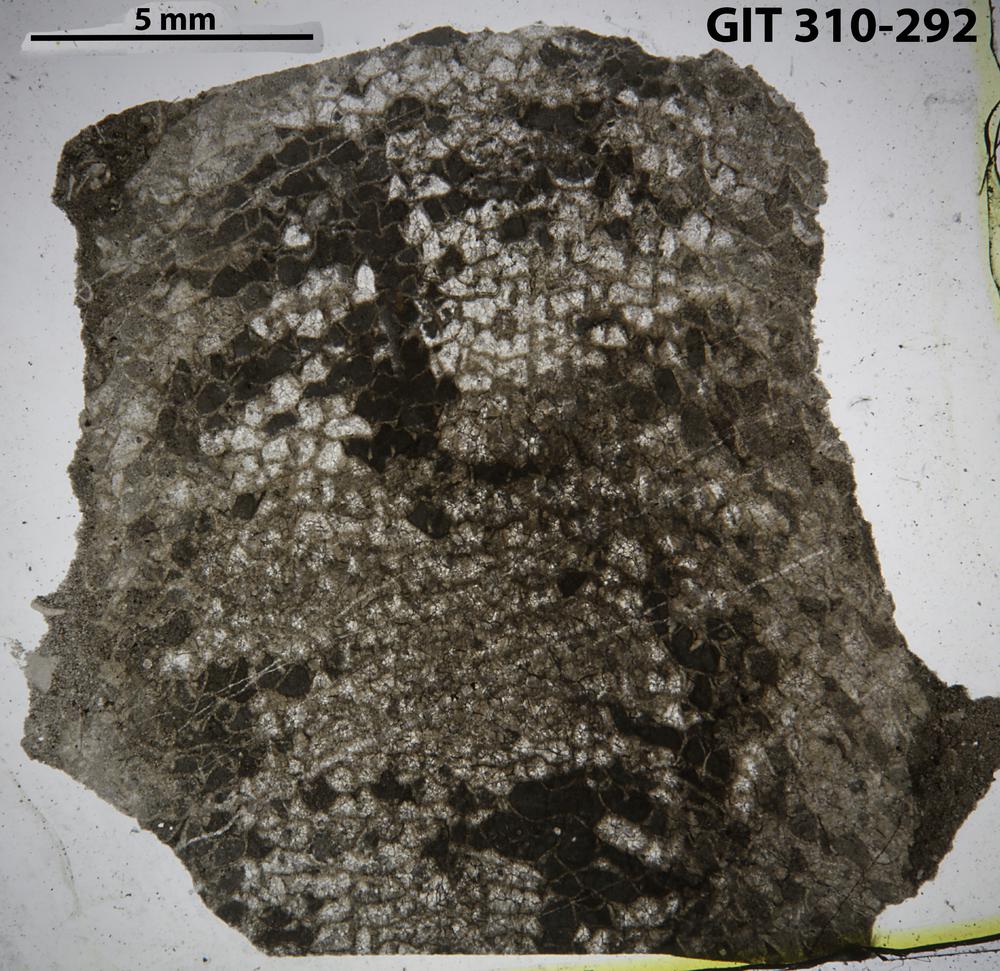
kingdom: Animalia
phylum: Porifera
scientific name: Porifera
